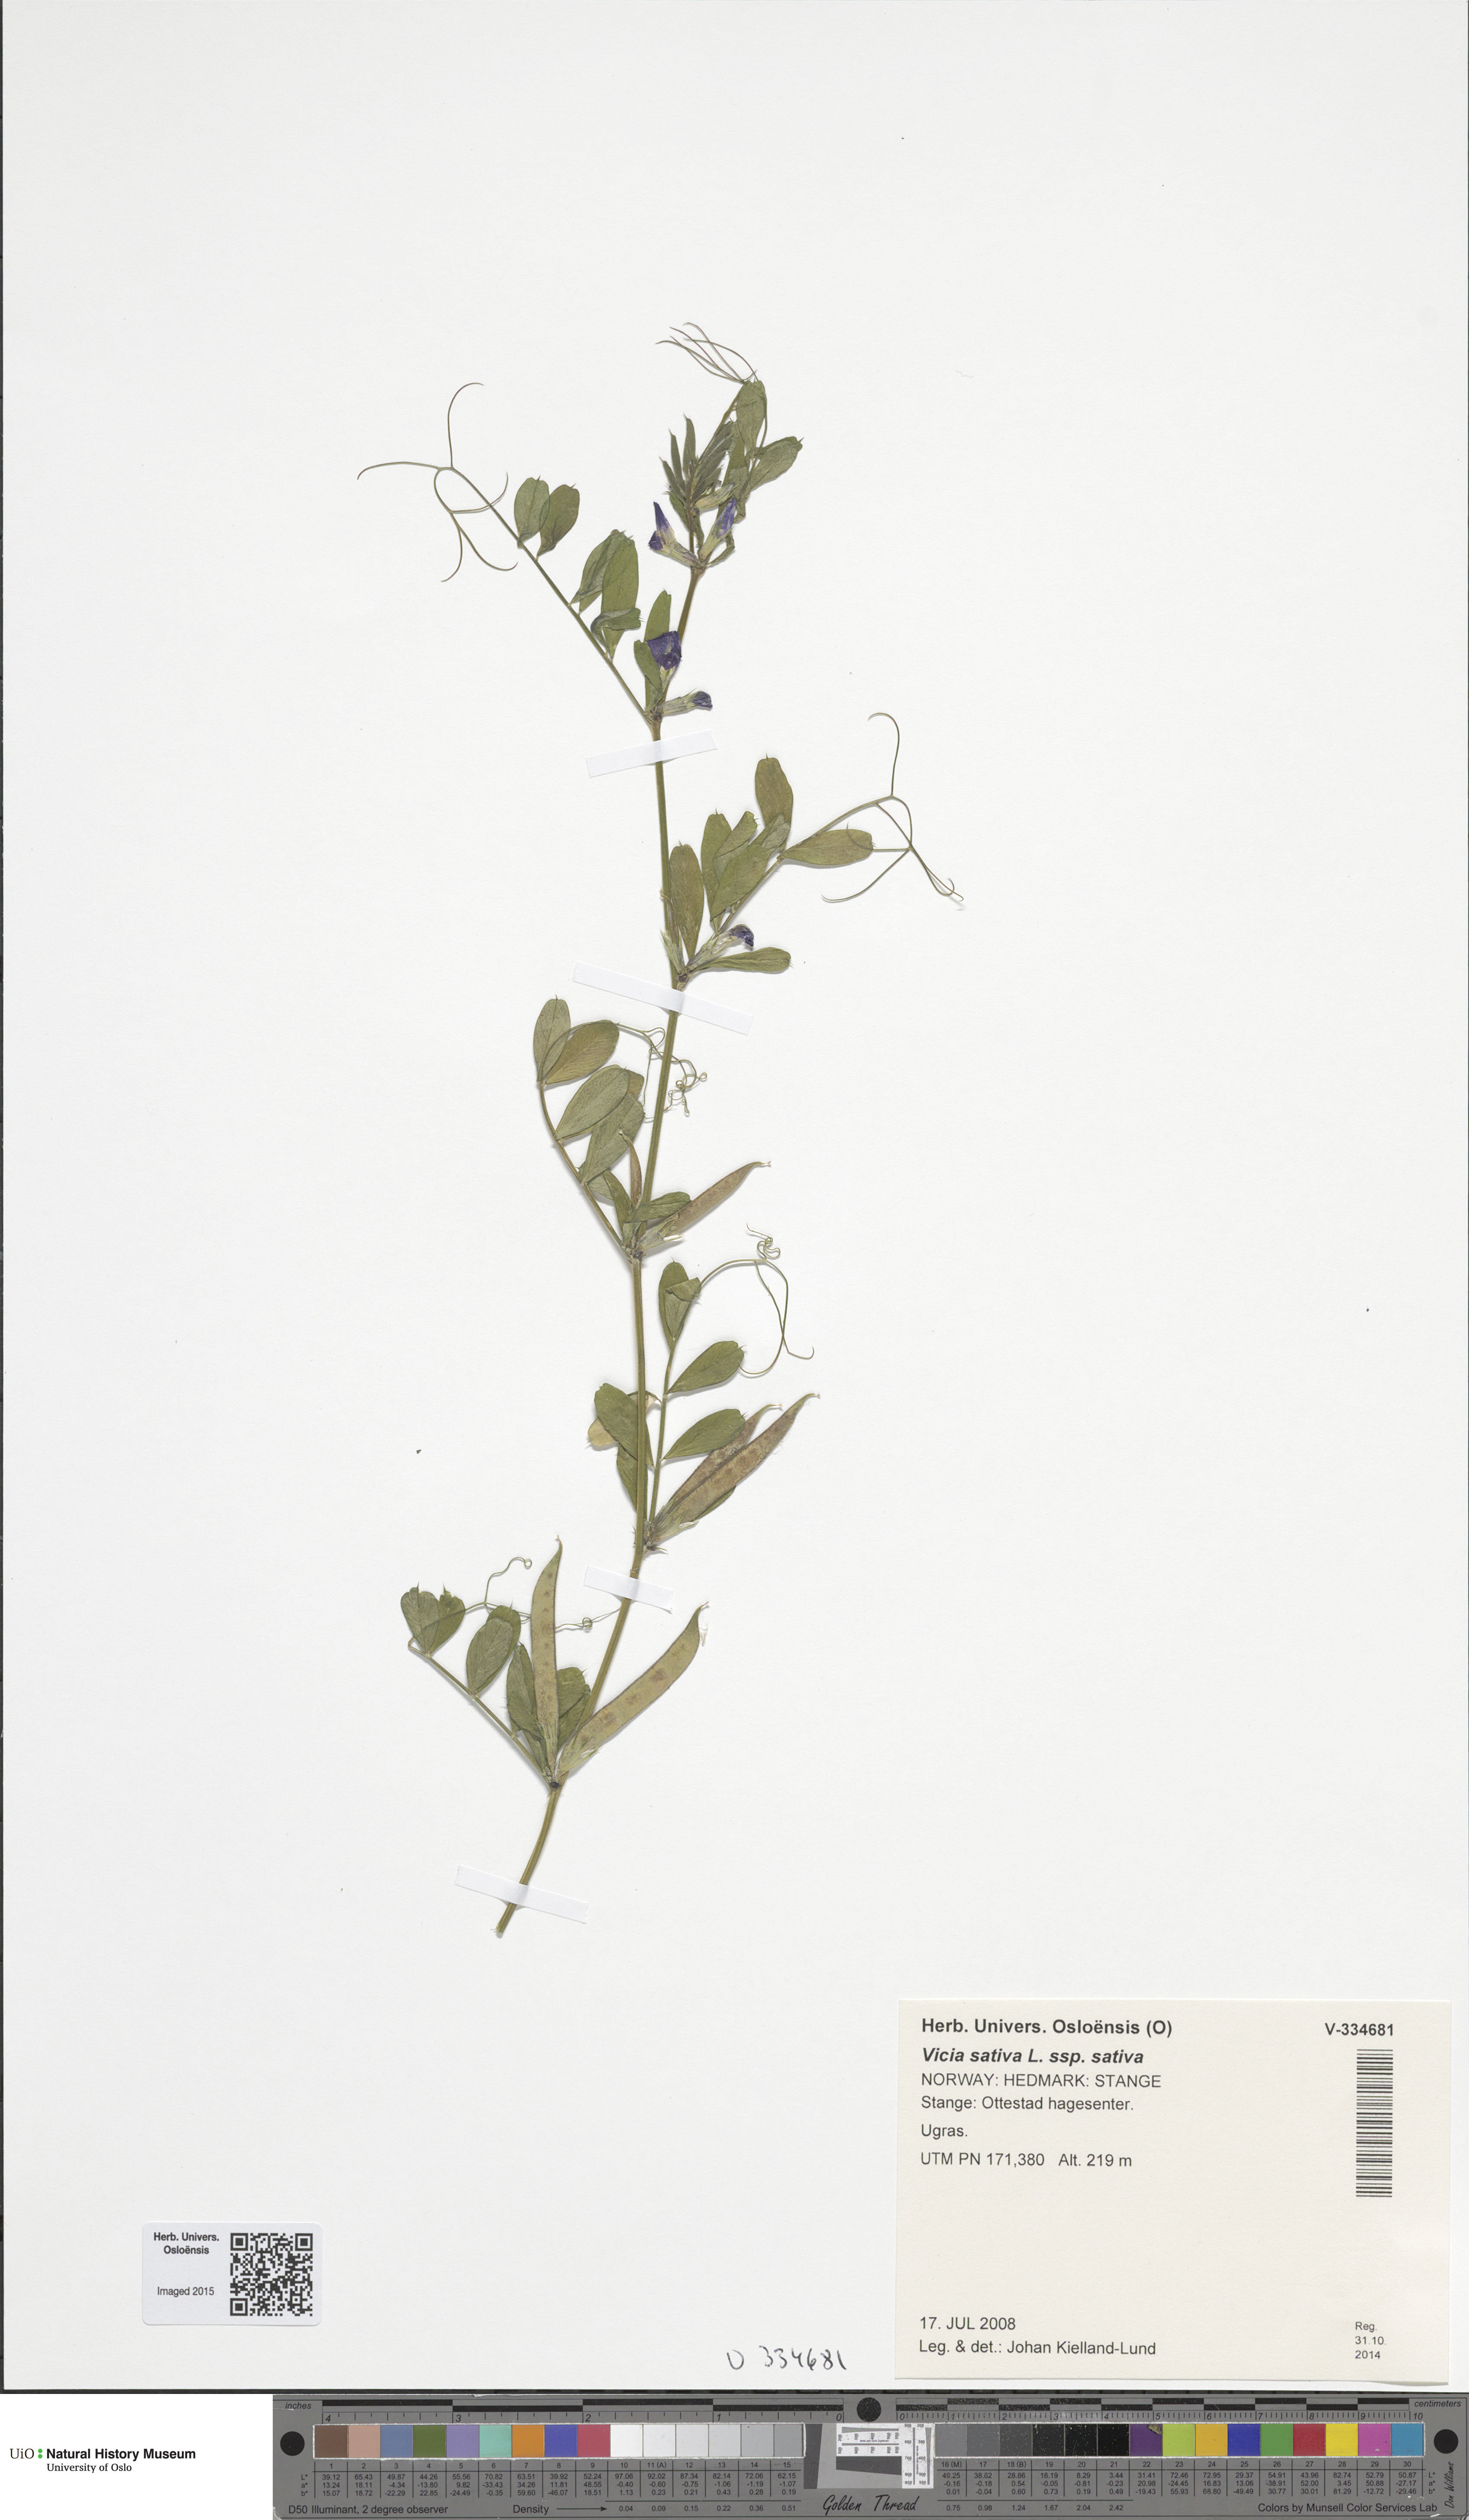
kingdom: Plantae
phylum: Tracheophyta
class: Magnoliopsida
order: Fabales
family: Fabaceae
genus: Vicia
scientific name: Vicia sativa
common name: Garden vetch
